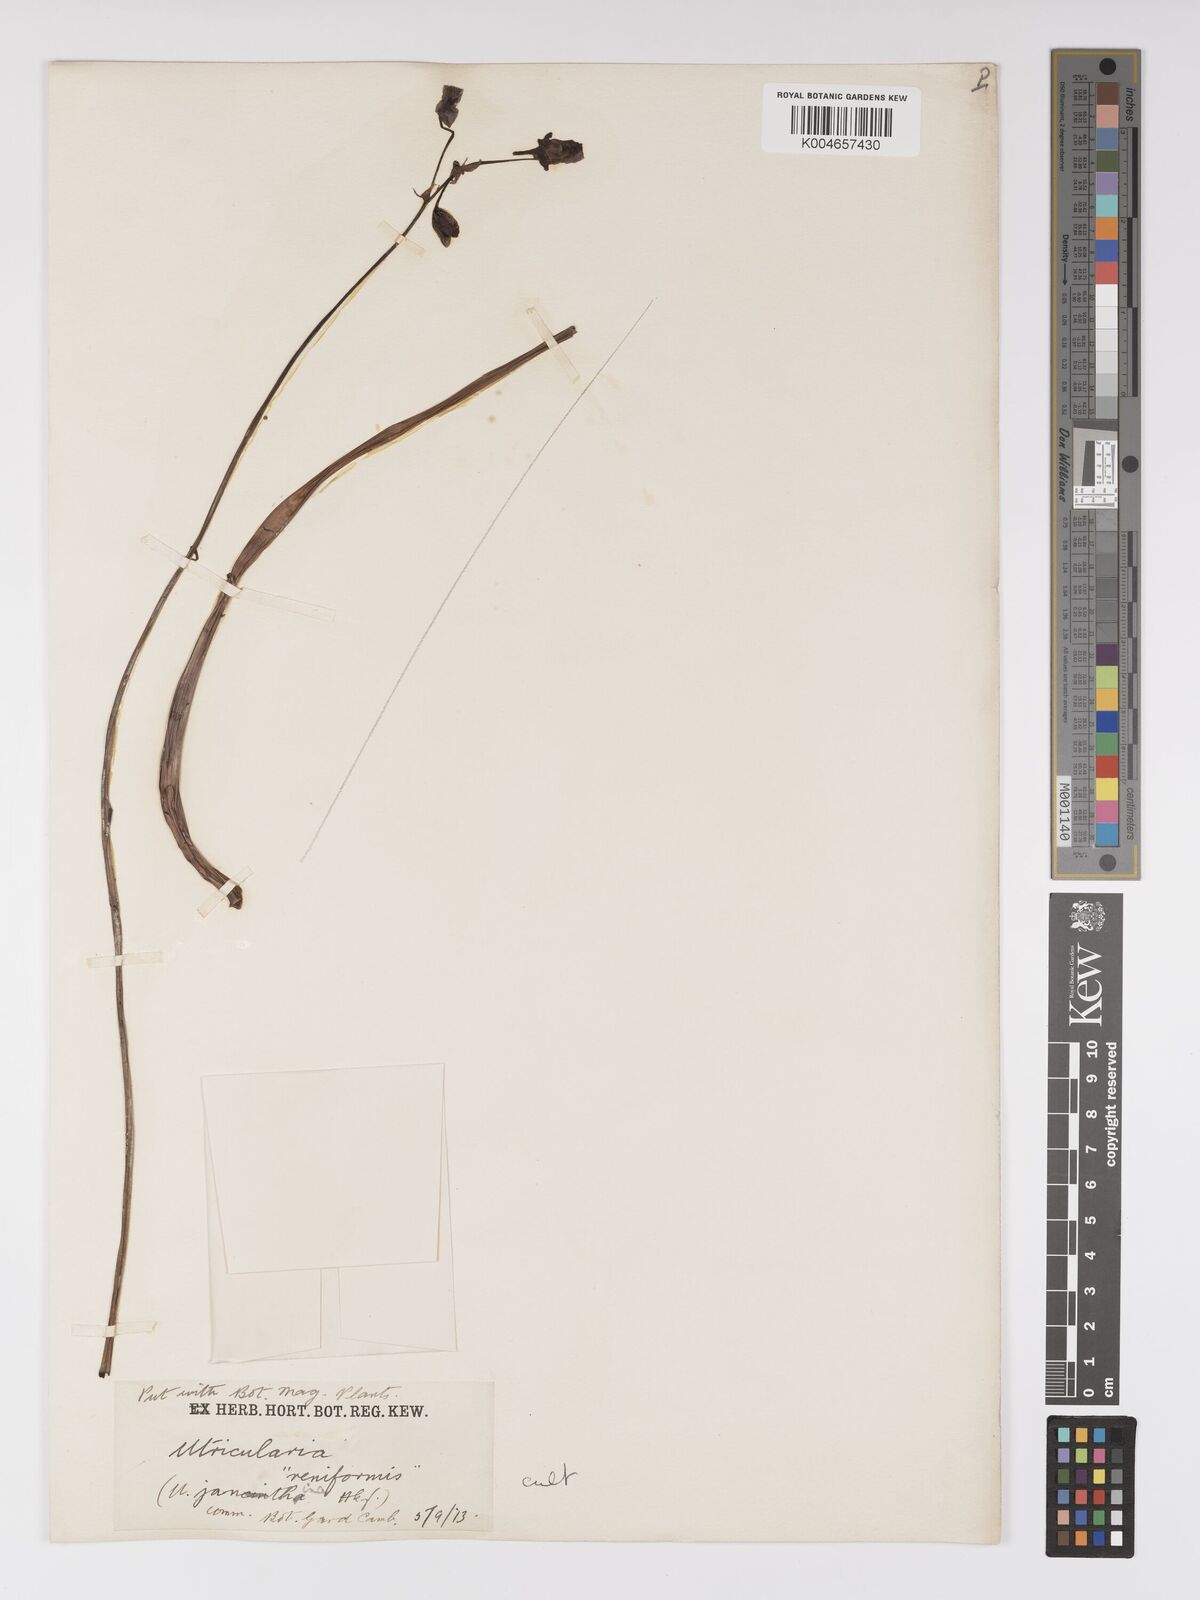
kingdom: Plantae
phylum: Tracheophyta
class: Magnoliopsida
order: Lamiales
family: Lentibulariaceae
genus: Utricularia
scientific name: Utricularia reniformis
